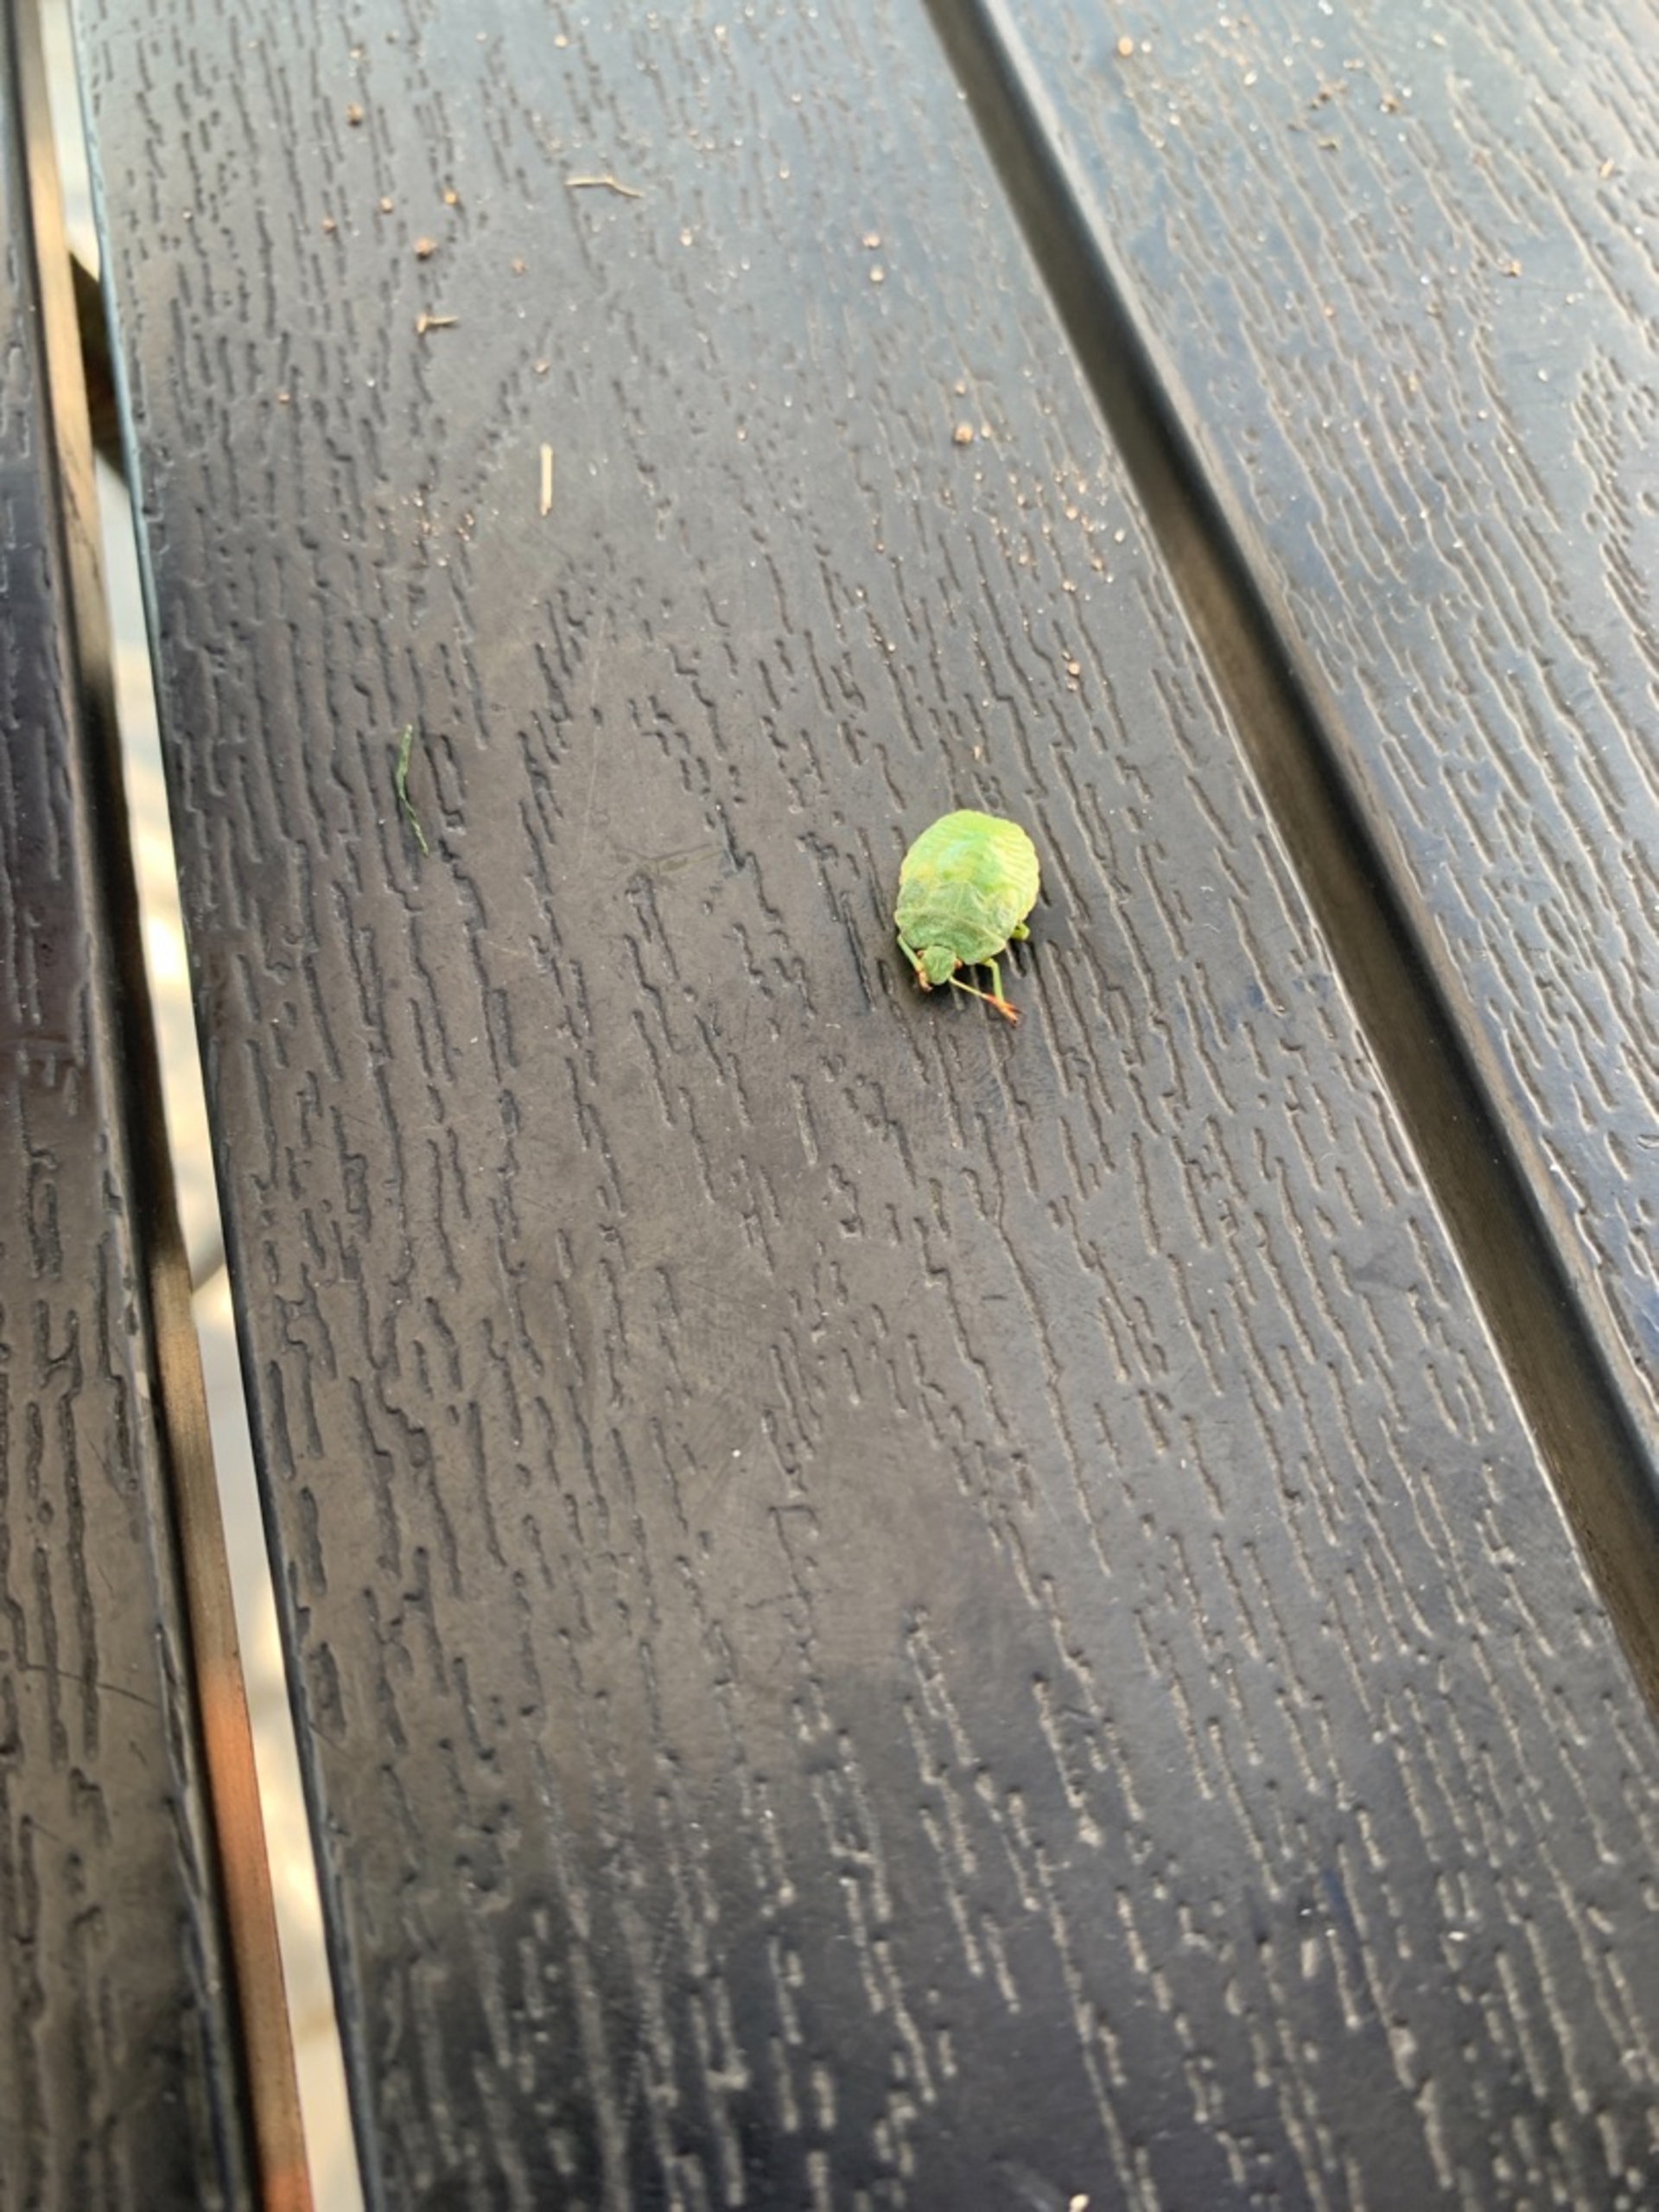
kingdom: Animalia
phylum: Arthropoda
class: Insecta
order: Hemiptera
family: Pentatomidae
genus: Palomena
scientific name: Palomena prasina
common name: Grøn bredtæge
